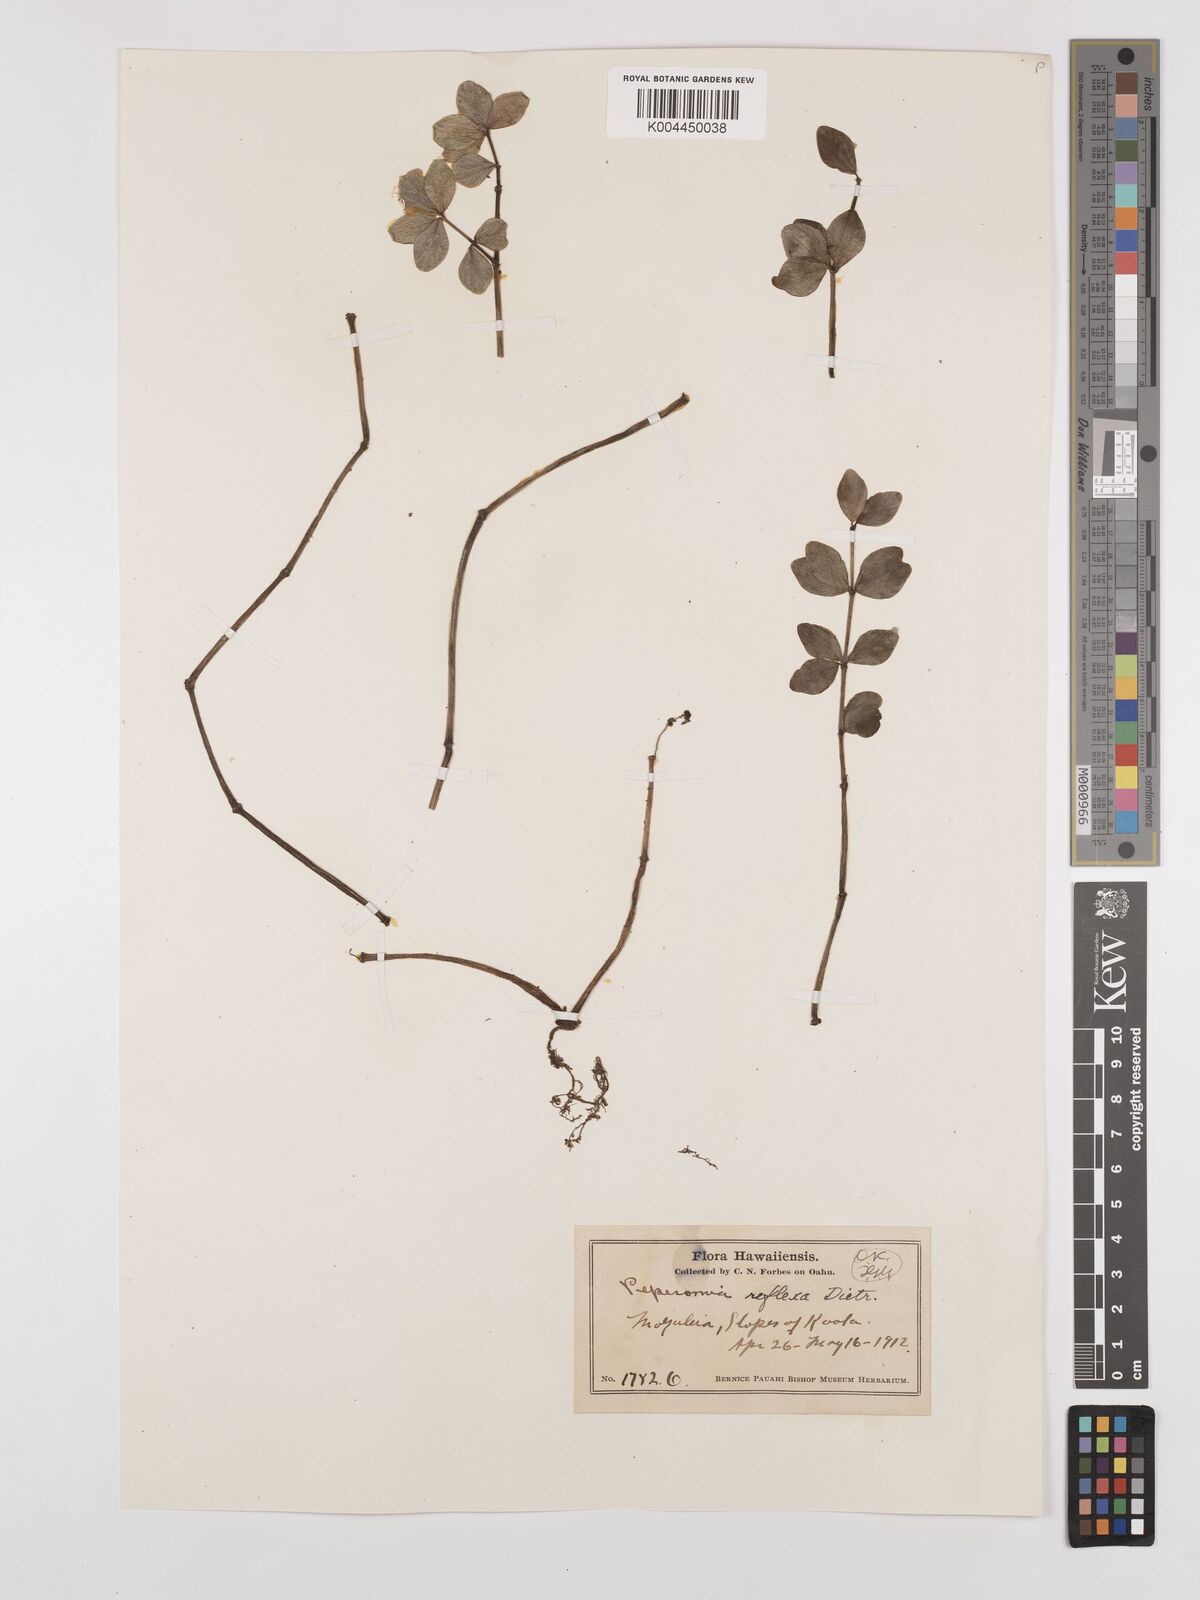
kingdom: Plantae
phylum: Tracheophyta
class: Magnoliopsida
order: Piperales
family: Piperaceae
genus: Peperomia
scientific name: Peperomia tetraphylla
